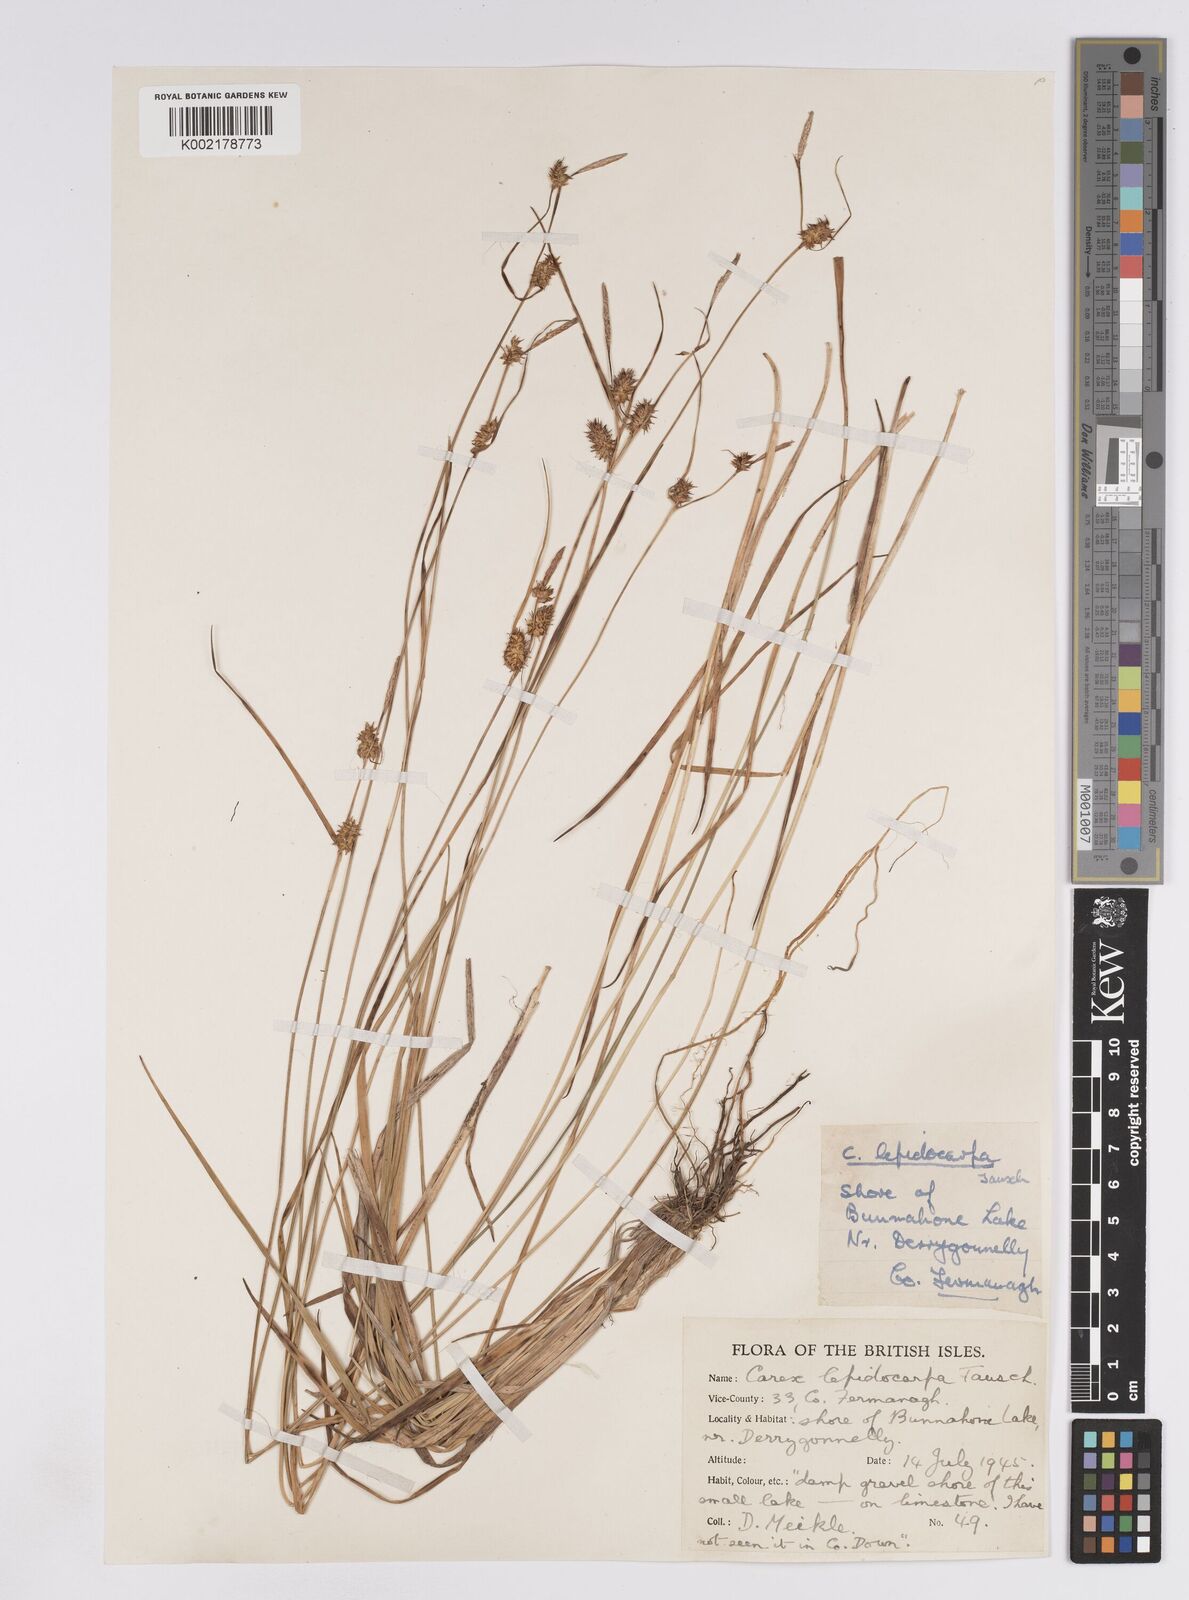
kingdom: Plantae
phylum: Tracheophyta
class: Liliopsida
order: Poales
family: Cyperaceae
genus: Carex
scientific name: Carex lepidocarpa
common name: Long-stalked yellow-sedge
